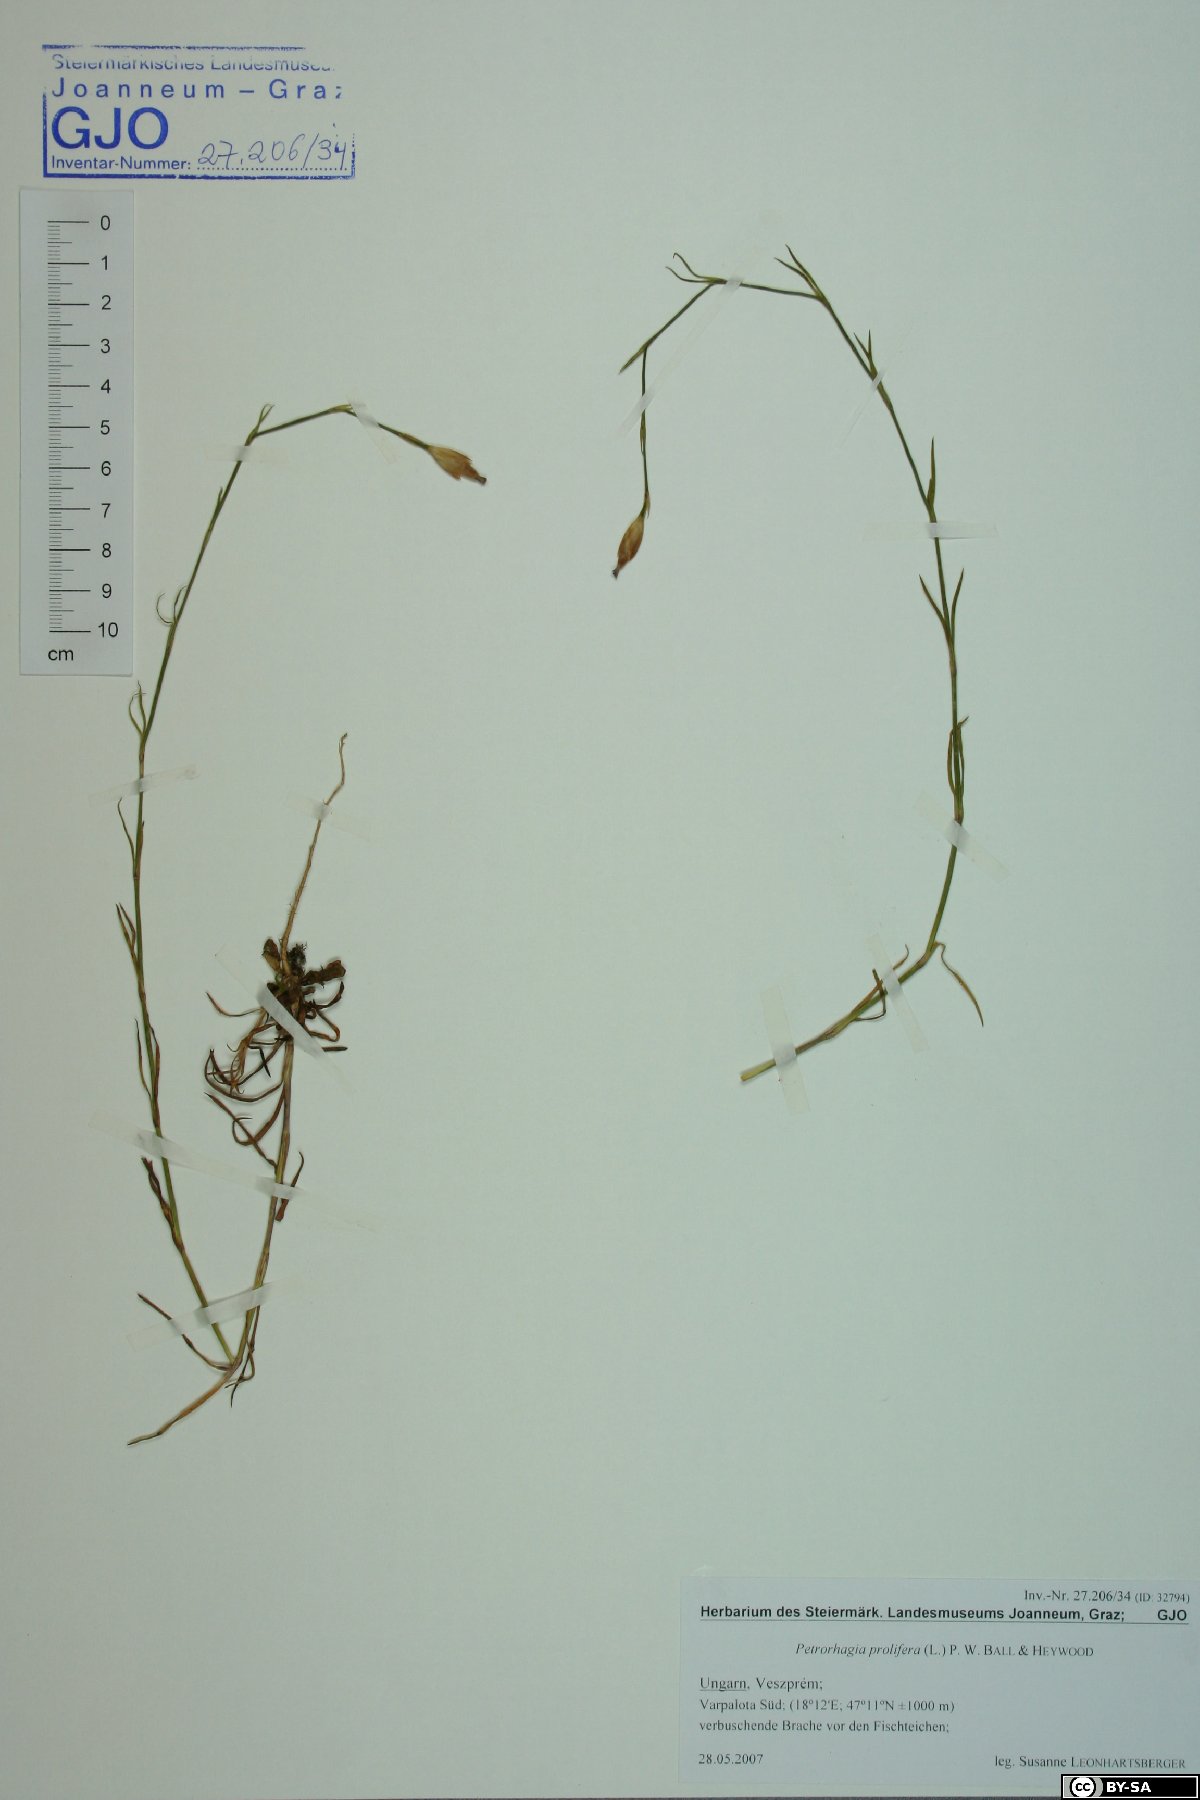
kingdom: Plantae
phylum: Tracheophyta
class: Magnoliopsida
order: Caryophyllales
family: Caryophyllaceae
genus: Petrorhagia
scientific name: Petrorhagia prolifera
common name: Proliferous pink
